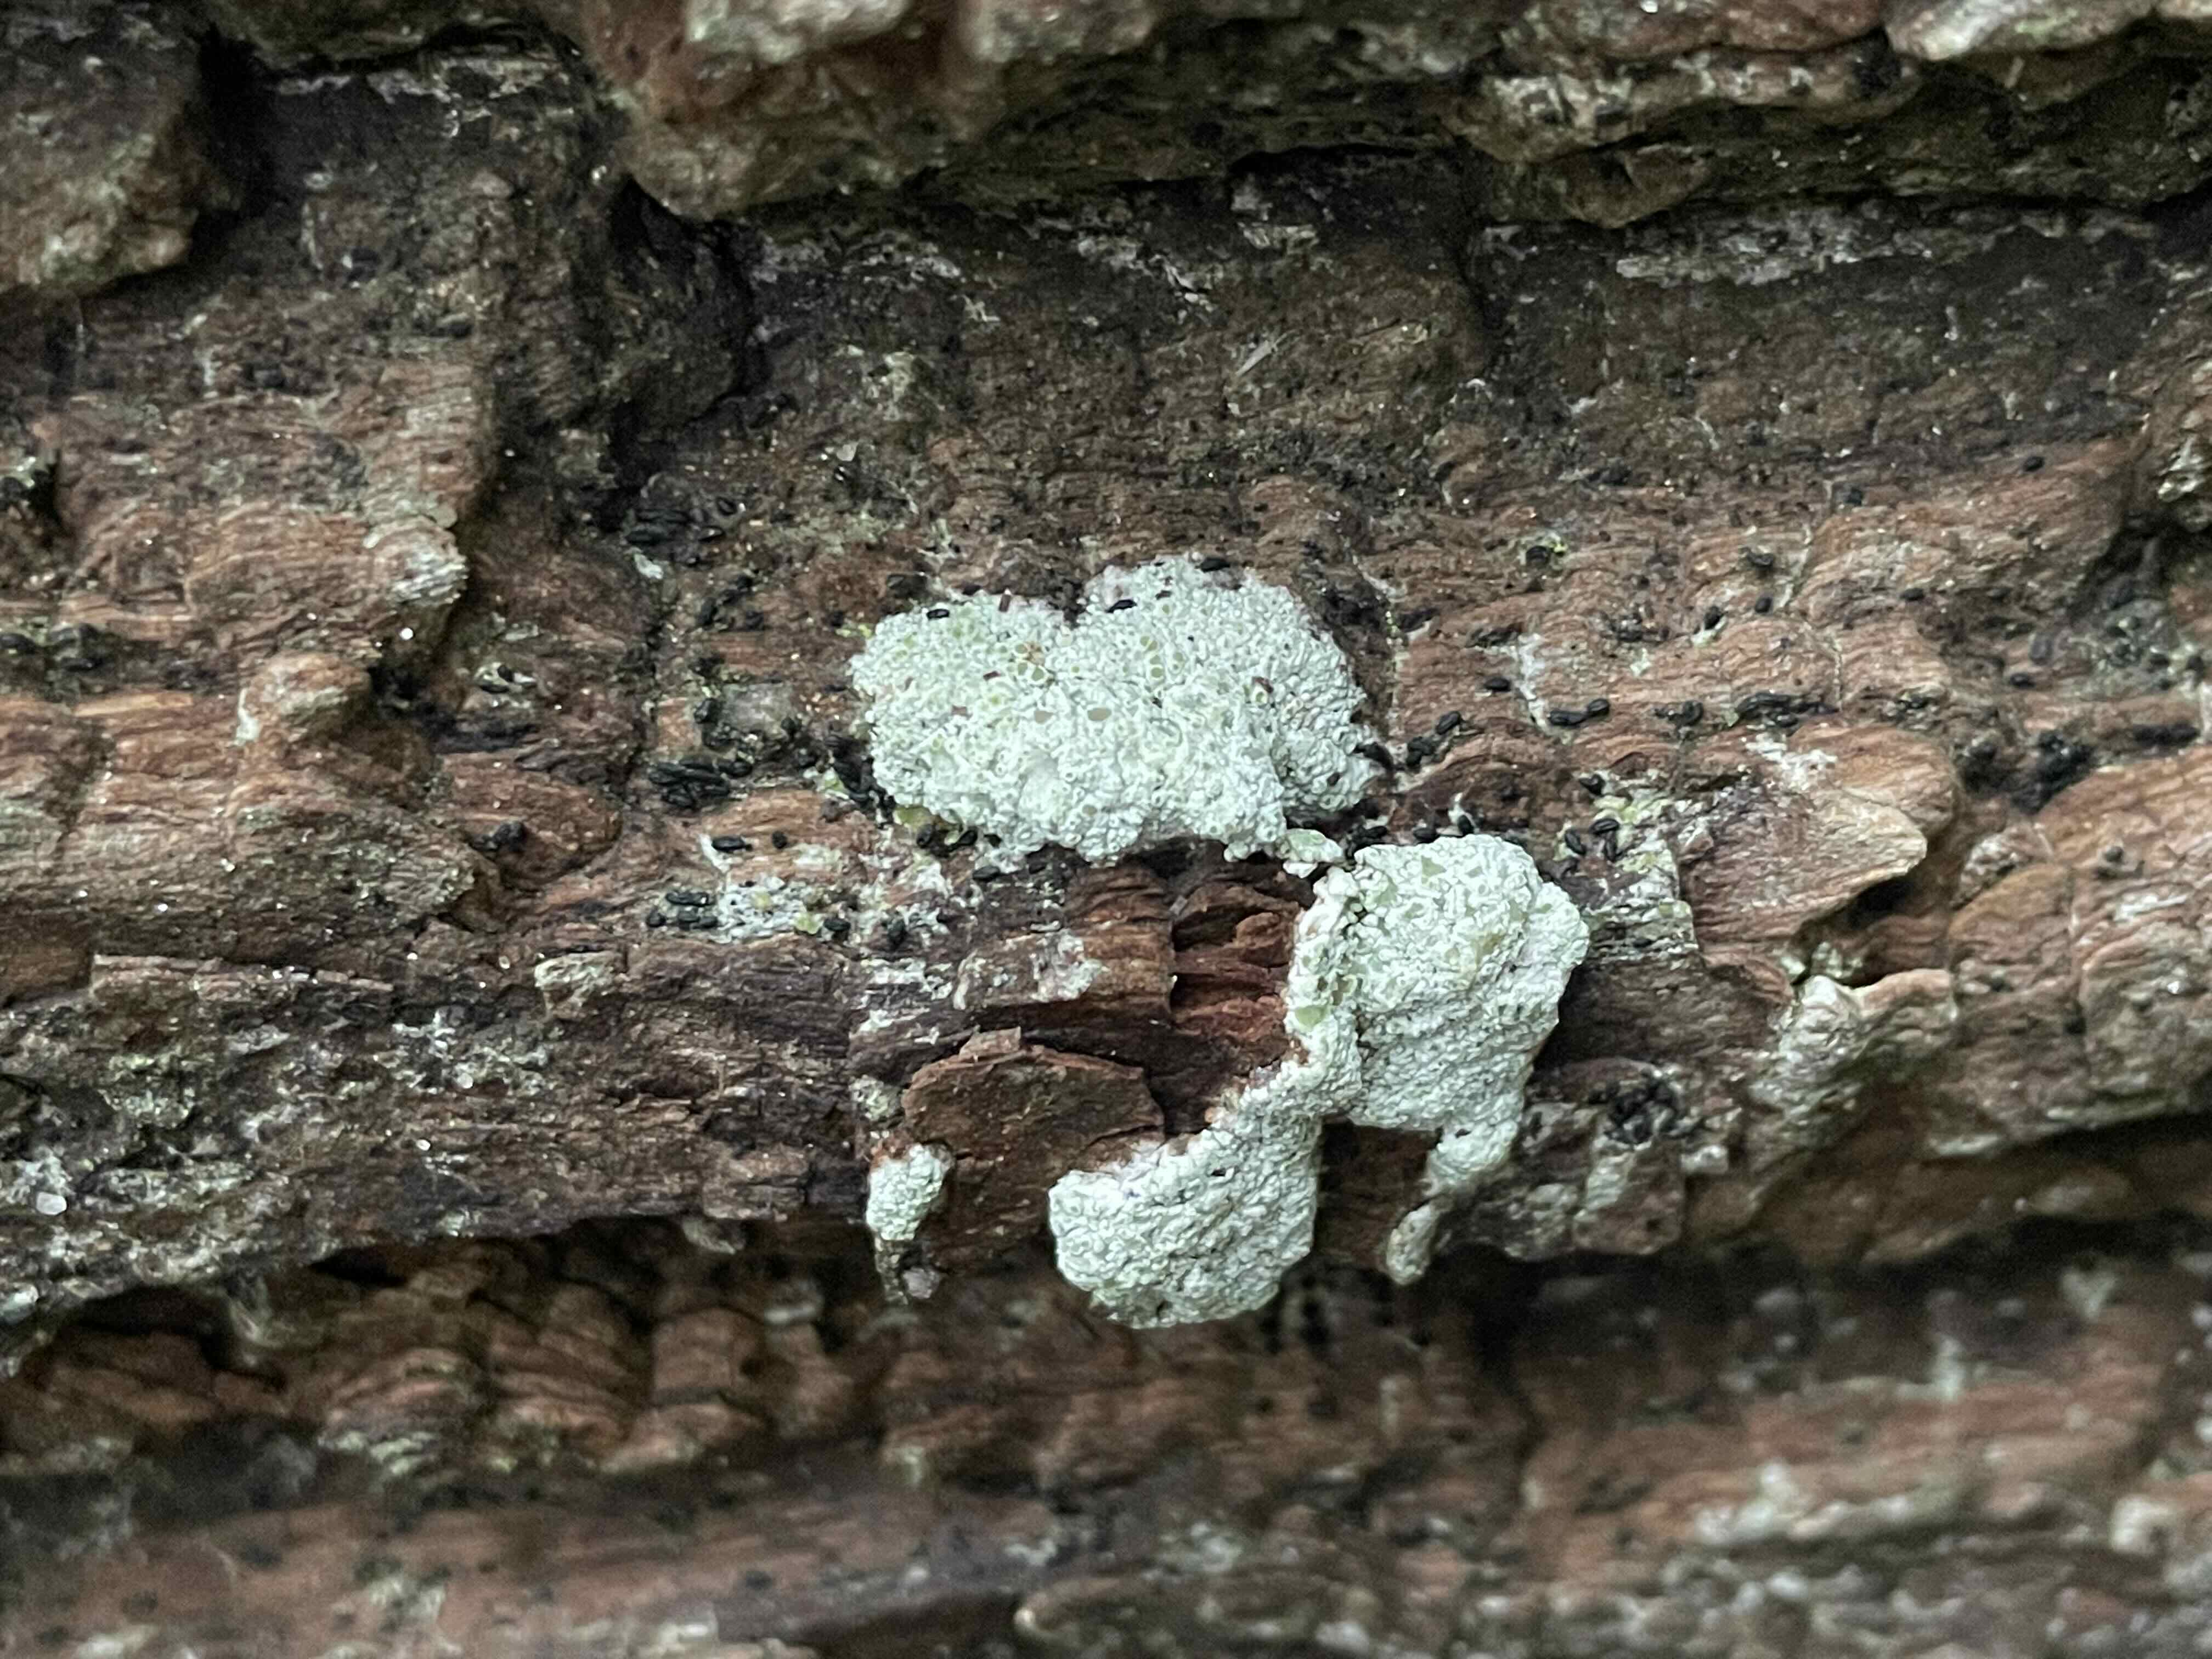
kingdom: Fungi
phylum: Ascomycota
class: Lecanoromycetes
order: Lecanorales
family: Lecanoraceae
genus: Lecanora
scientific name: Lecanora
